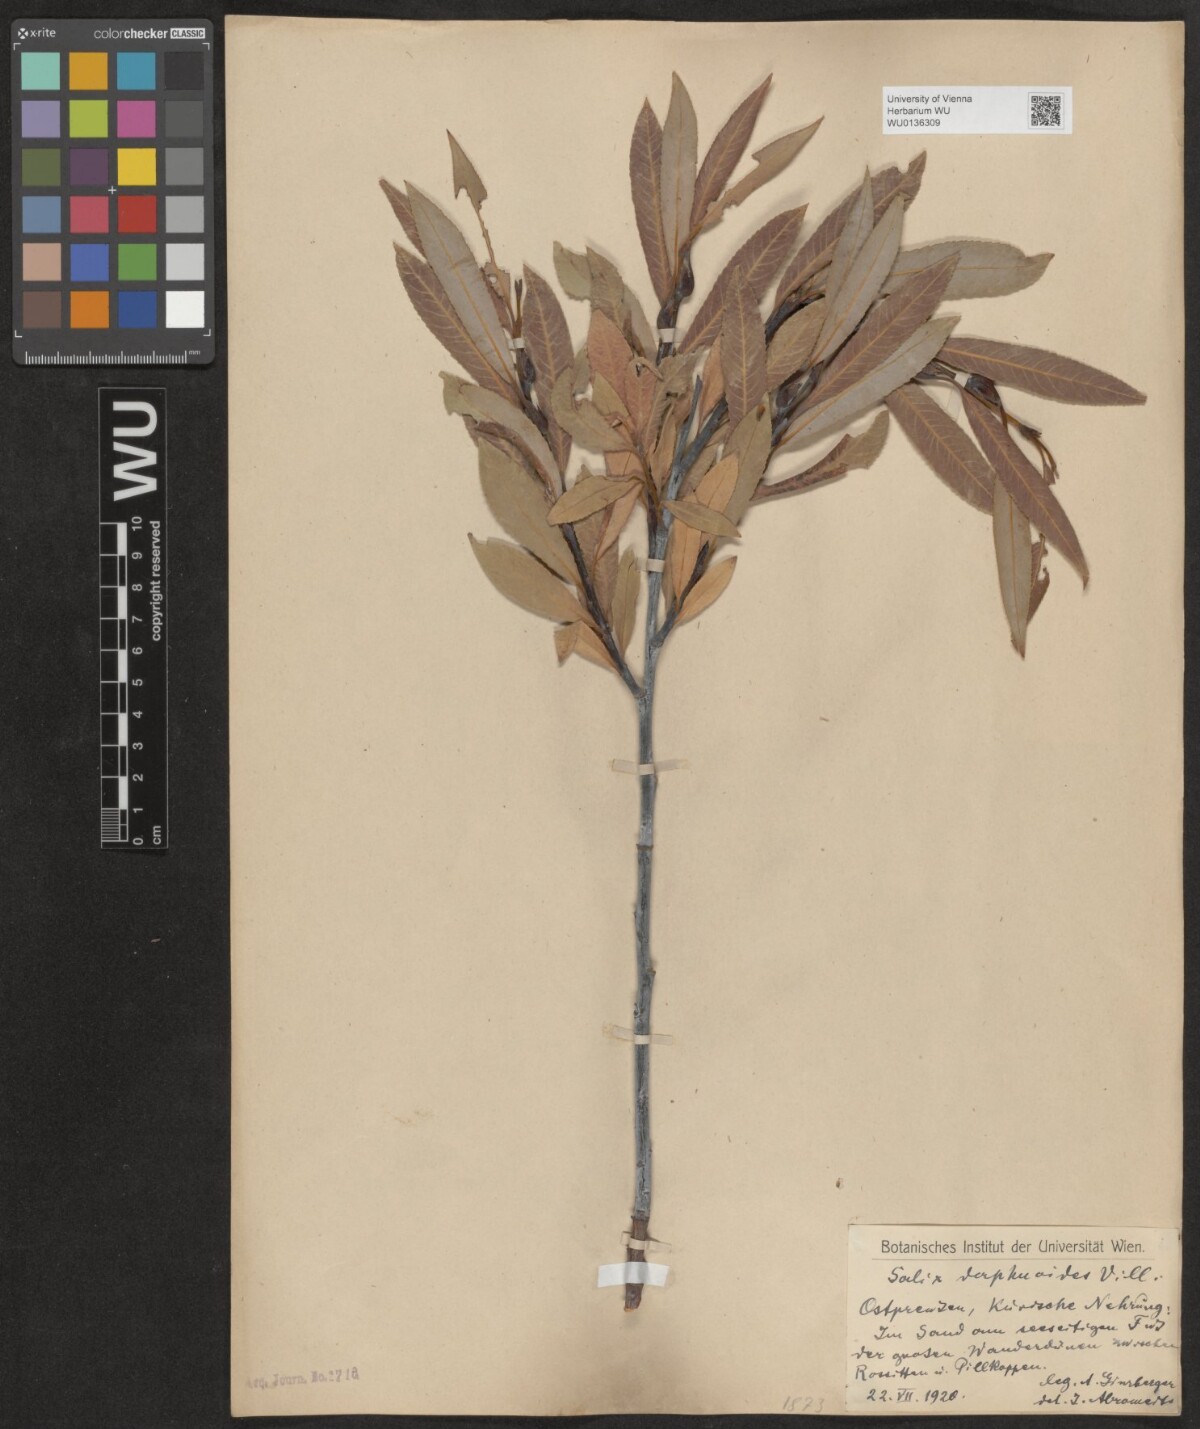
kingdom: Plantae
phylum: Tracheophyta
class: Magnoliopsida
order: Malpighiales
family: Salicaceae
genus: Salix
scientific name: Salix daphnoides
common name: European violet-willow
